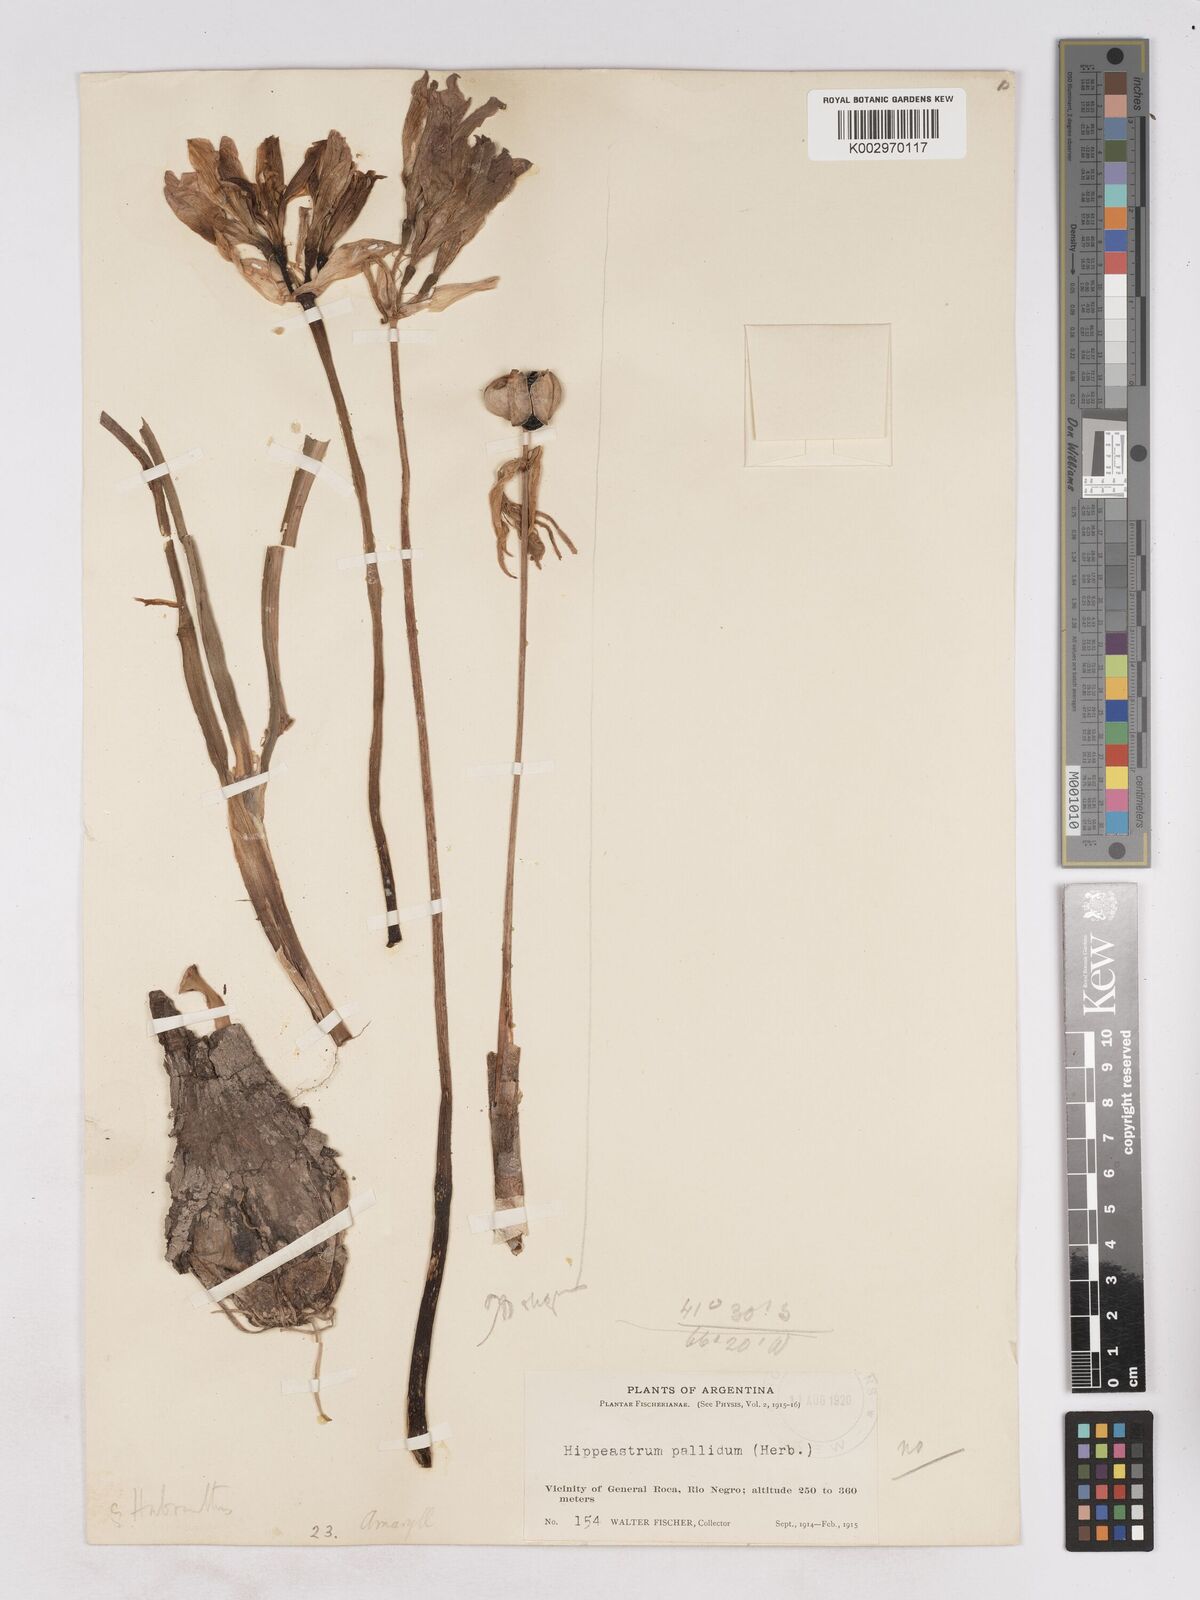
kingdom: Plantae
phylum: Tracheophyta
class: Liliopsida
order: Asparagales
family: Amaryllidaceae
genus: Zephyranthes
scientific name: Zephyranthes bagnoldii
